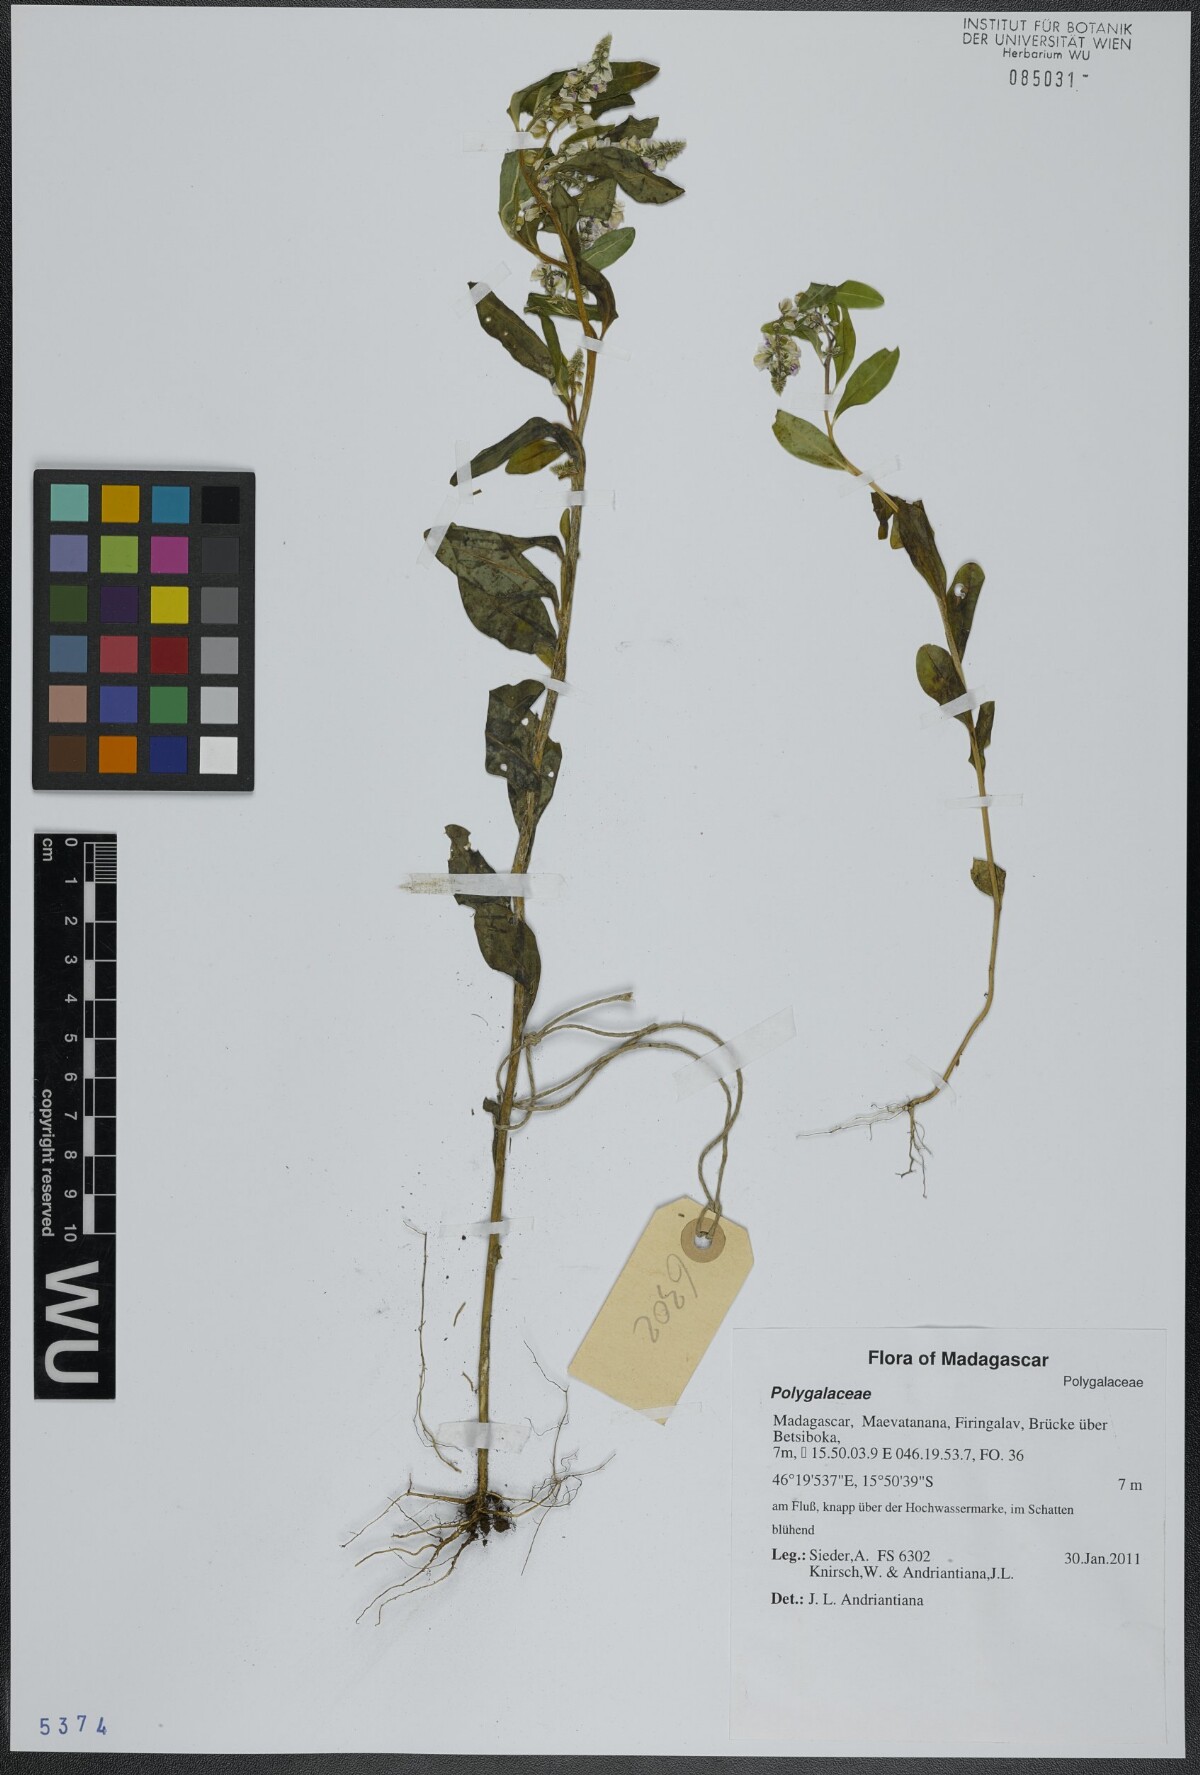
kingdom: Plantae
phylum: Tracheophyta
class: Magnoliopsida
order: Fabales
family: Polygalaceae
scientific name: Polygalaceae
